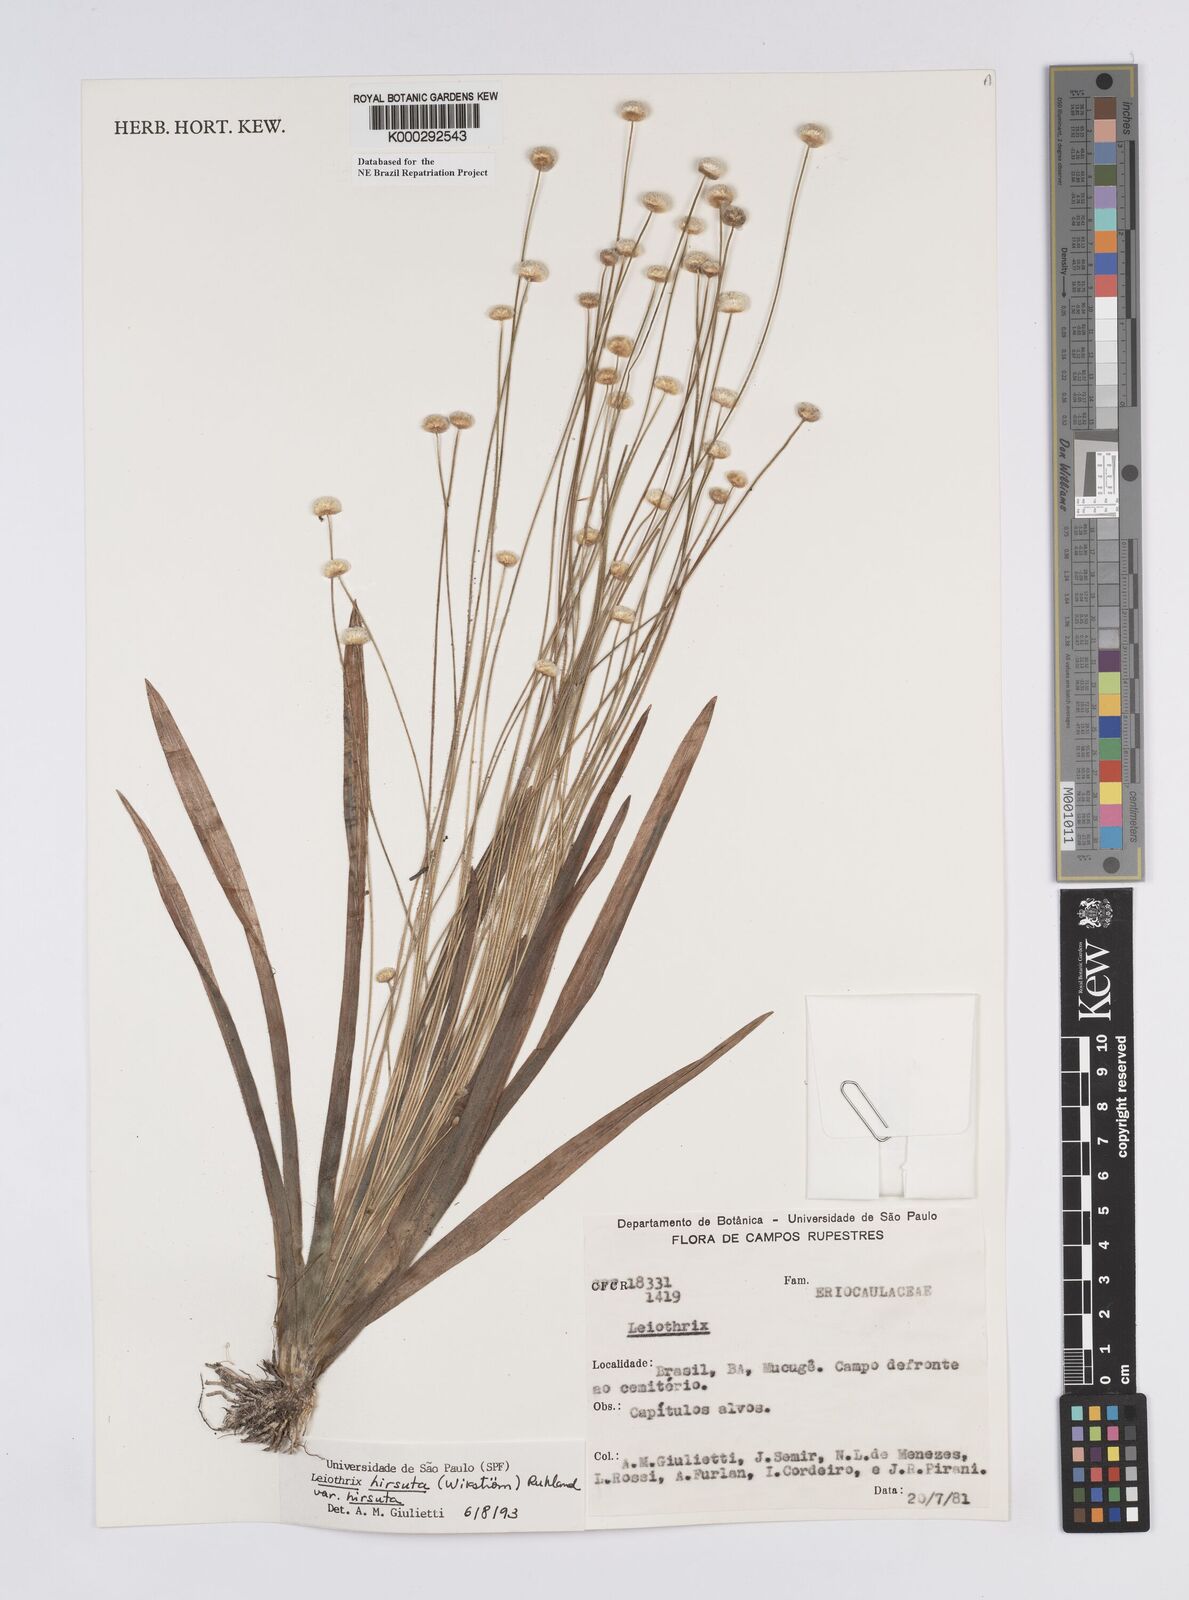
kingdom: Plantae
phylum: Tracheophyta
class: Liliopsida
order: Poales
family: Eriocaulaceae
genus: Leiothrix
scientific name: Leiothrix hirsuta
